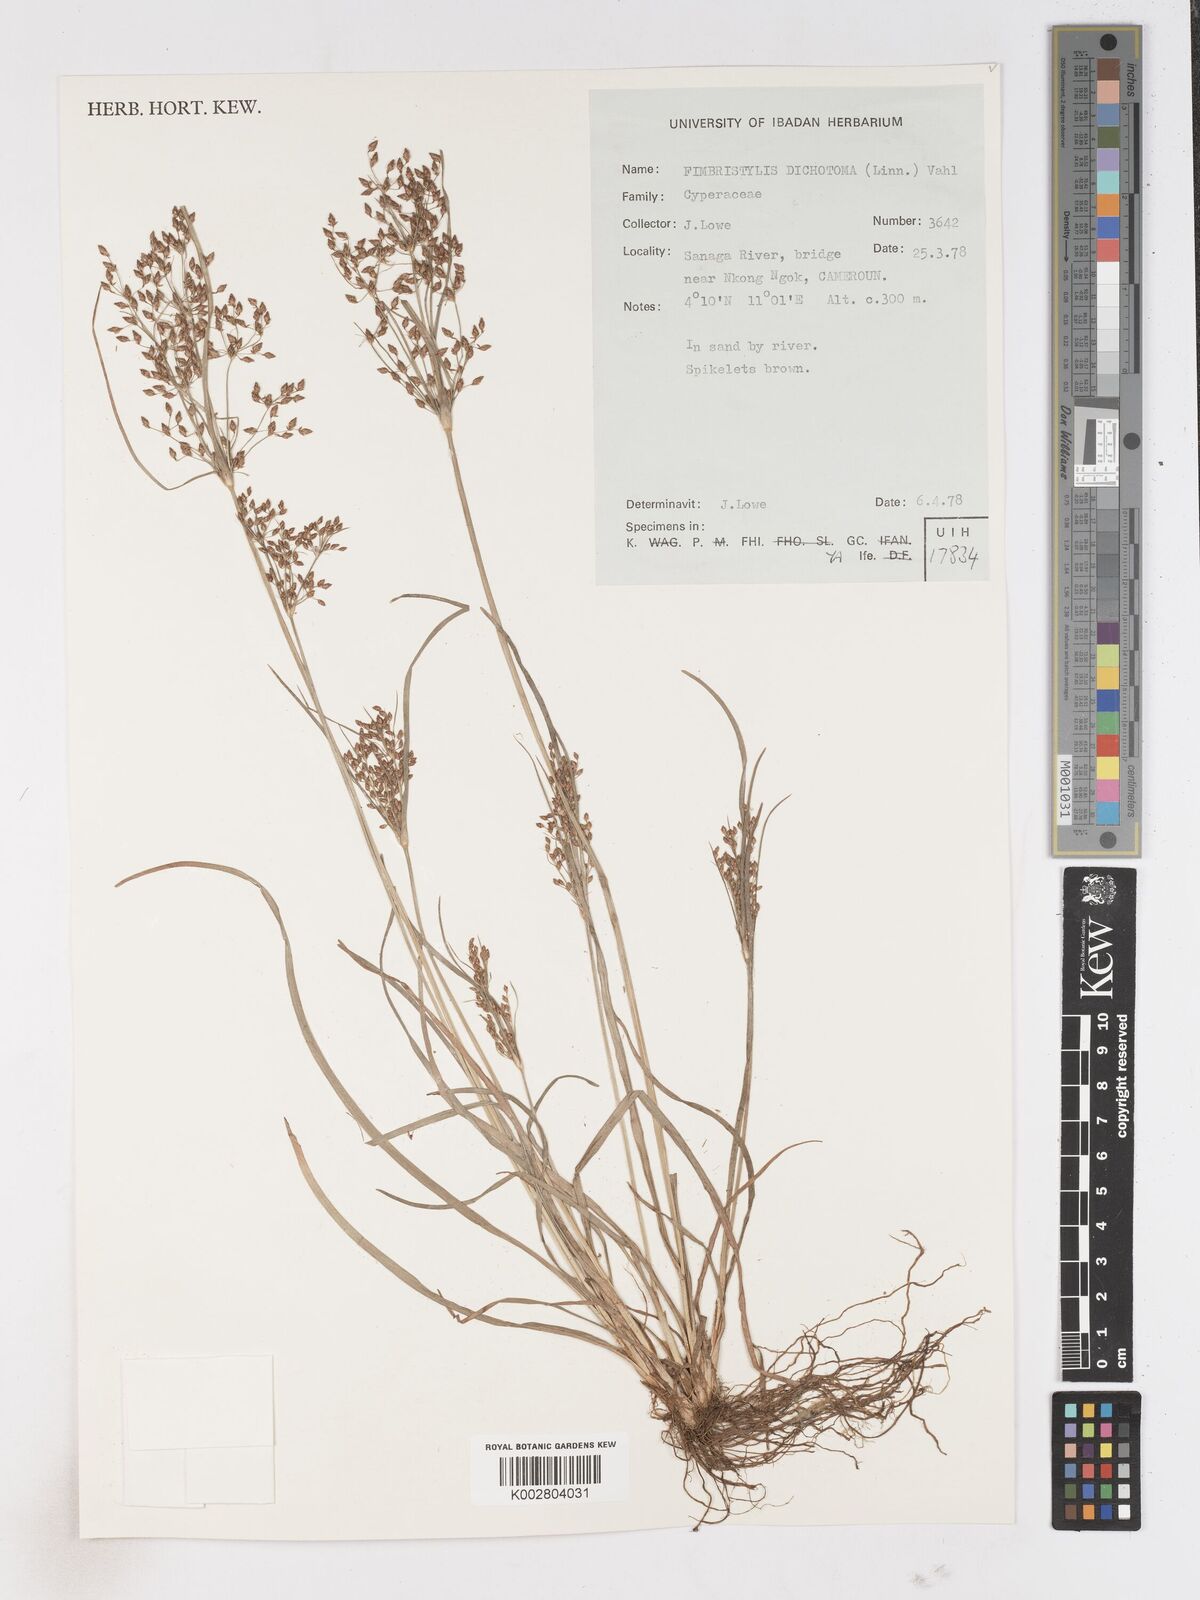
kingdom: Plantae
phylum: Tracheophyta
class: Liliopsida
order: Poales
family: Cyperaceae
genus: Fimbristylis
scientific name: Fimbristylis dichotoma
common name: Forked fimbry
